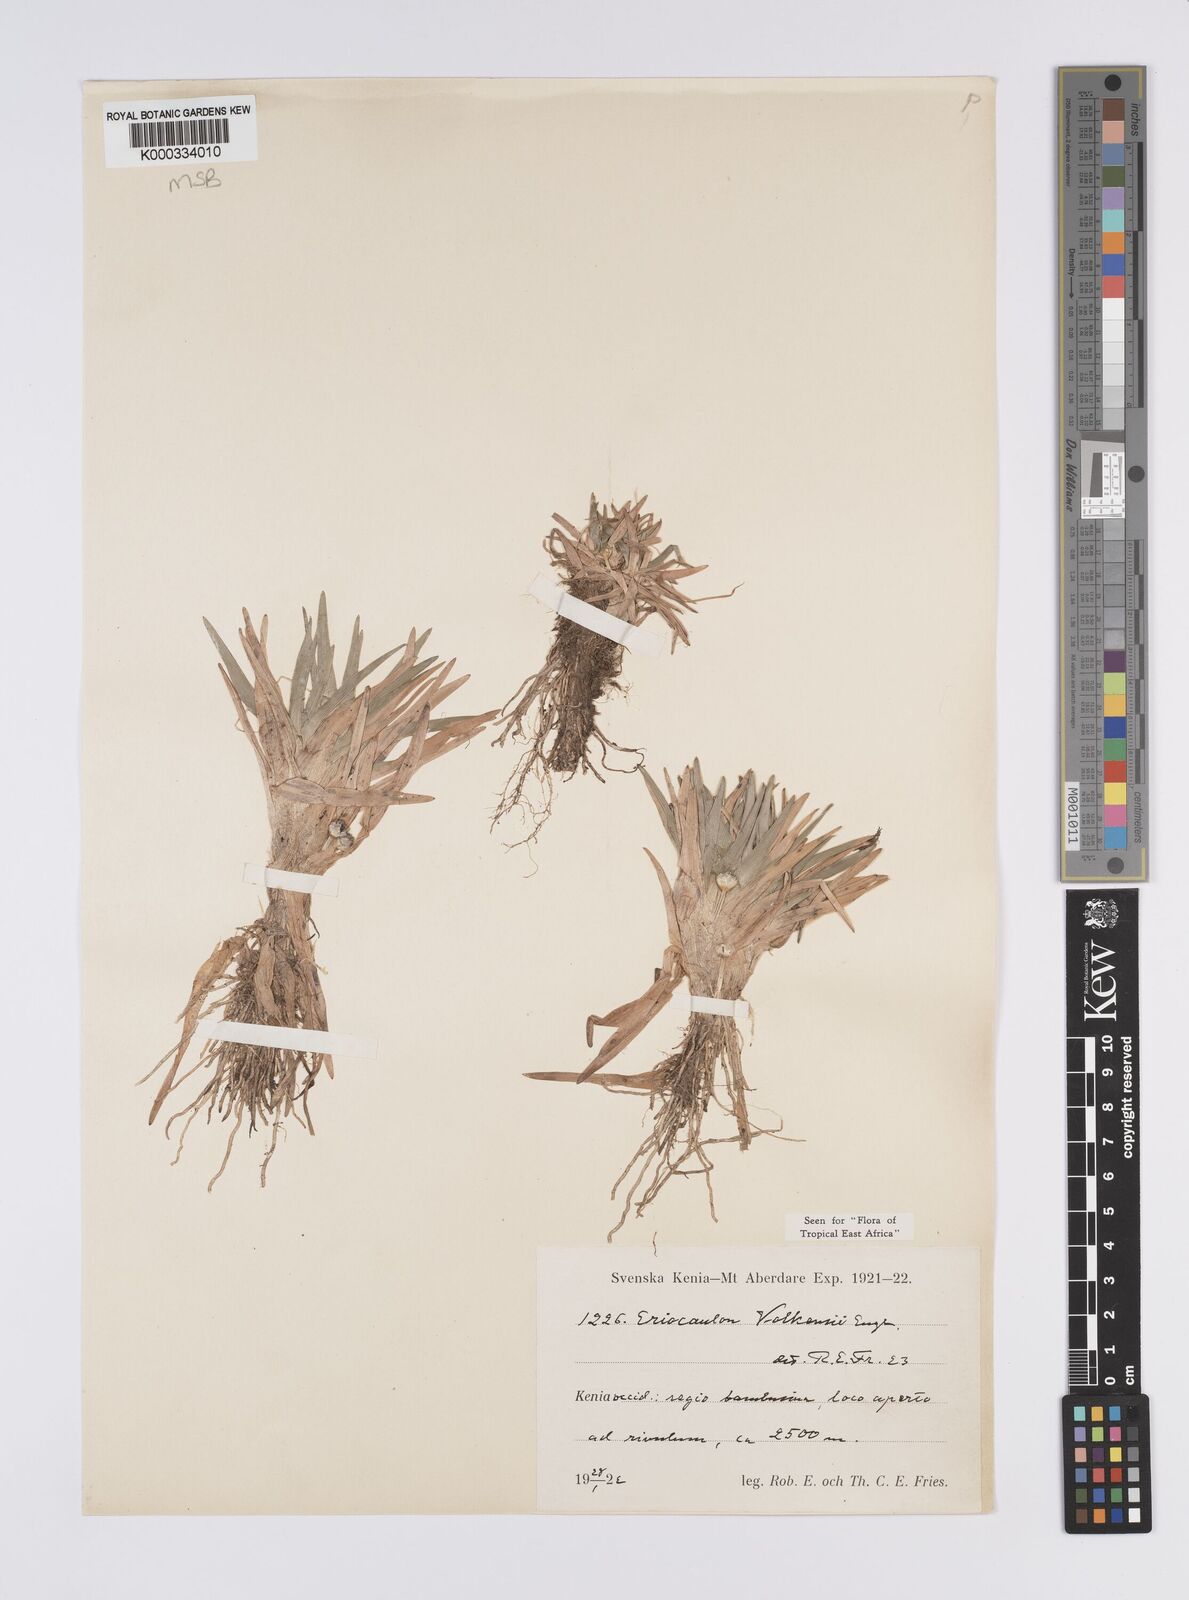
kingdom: Plantae
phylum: Tracheophyta
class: Liliopsida
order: Poales
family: Eriocaulaceae
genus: Eriocaulon
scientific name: Eriocaulon volkensii
